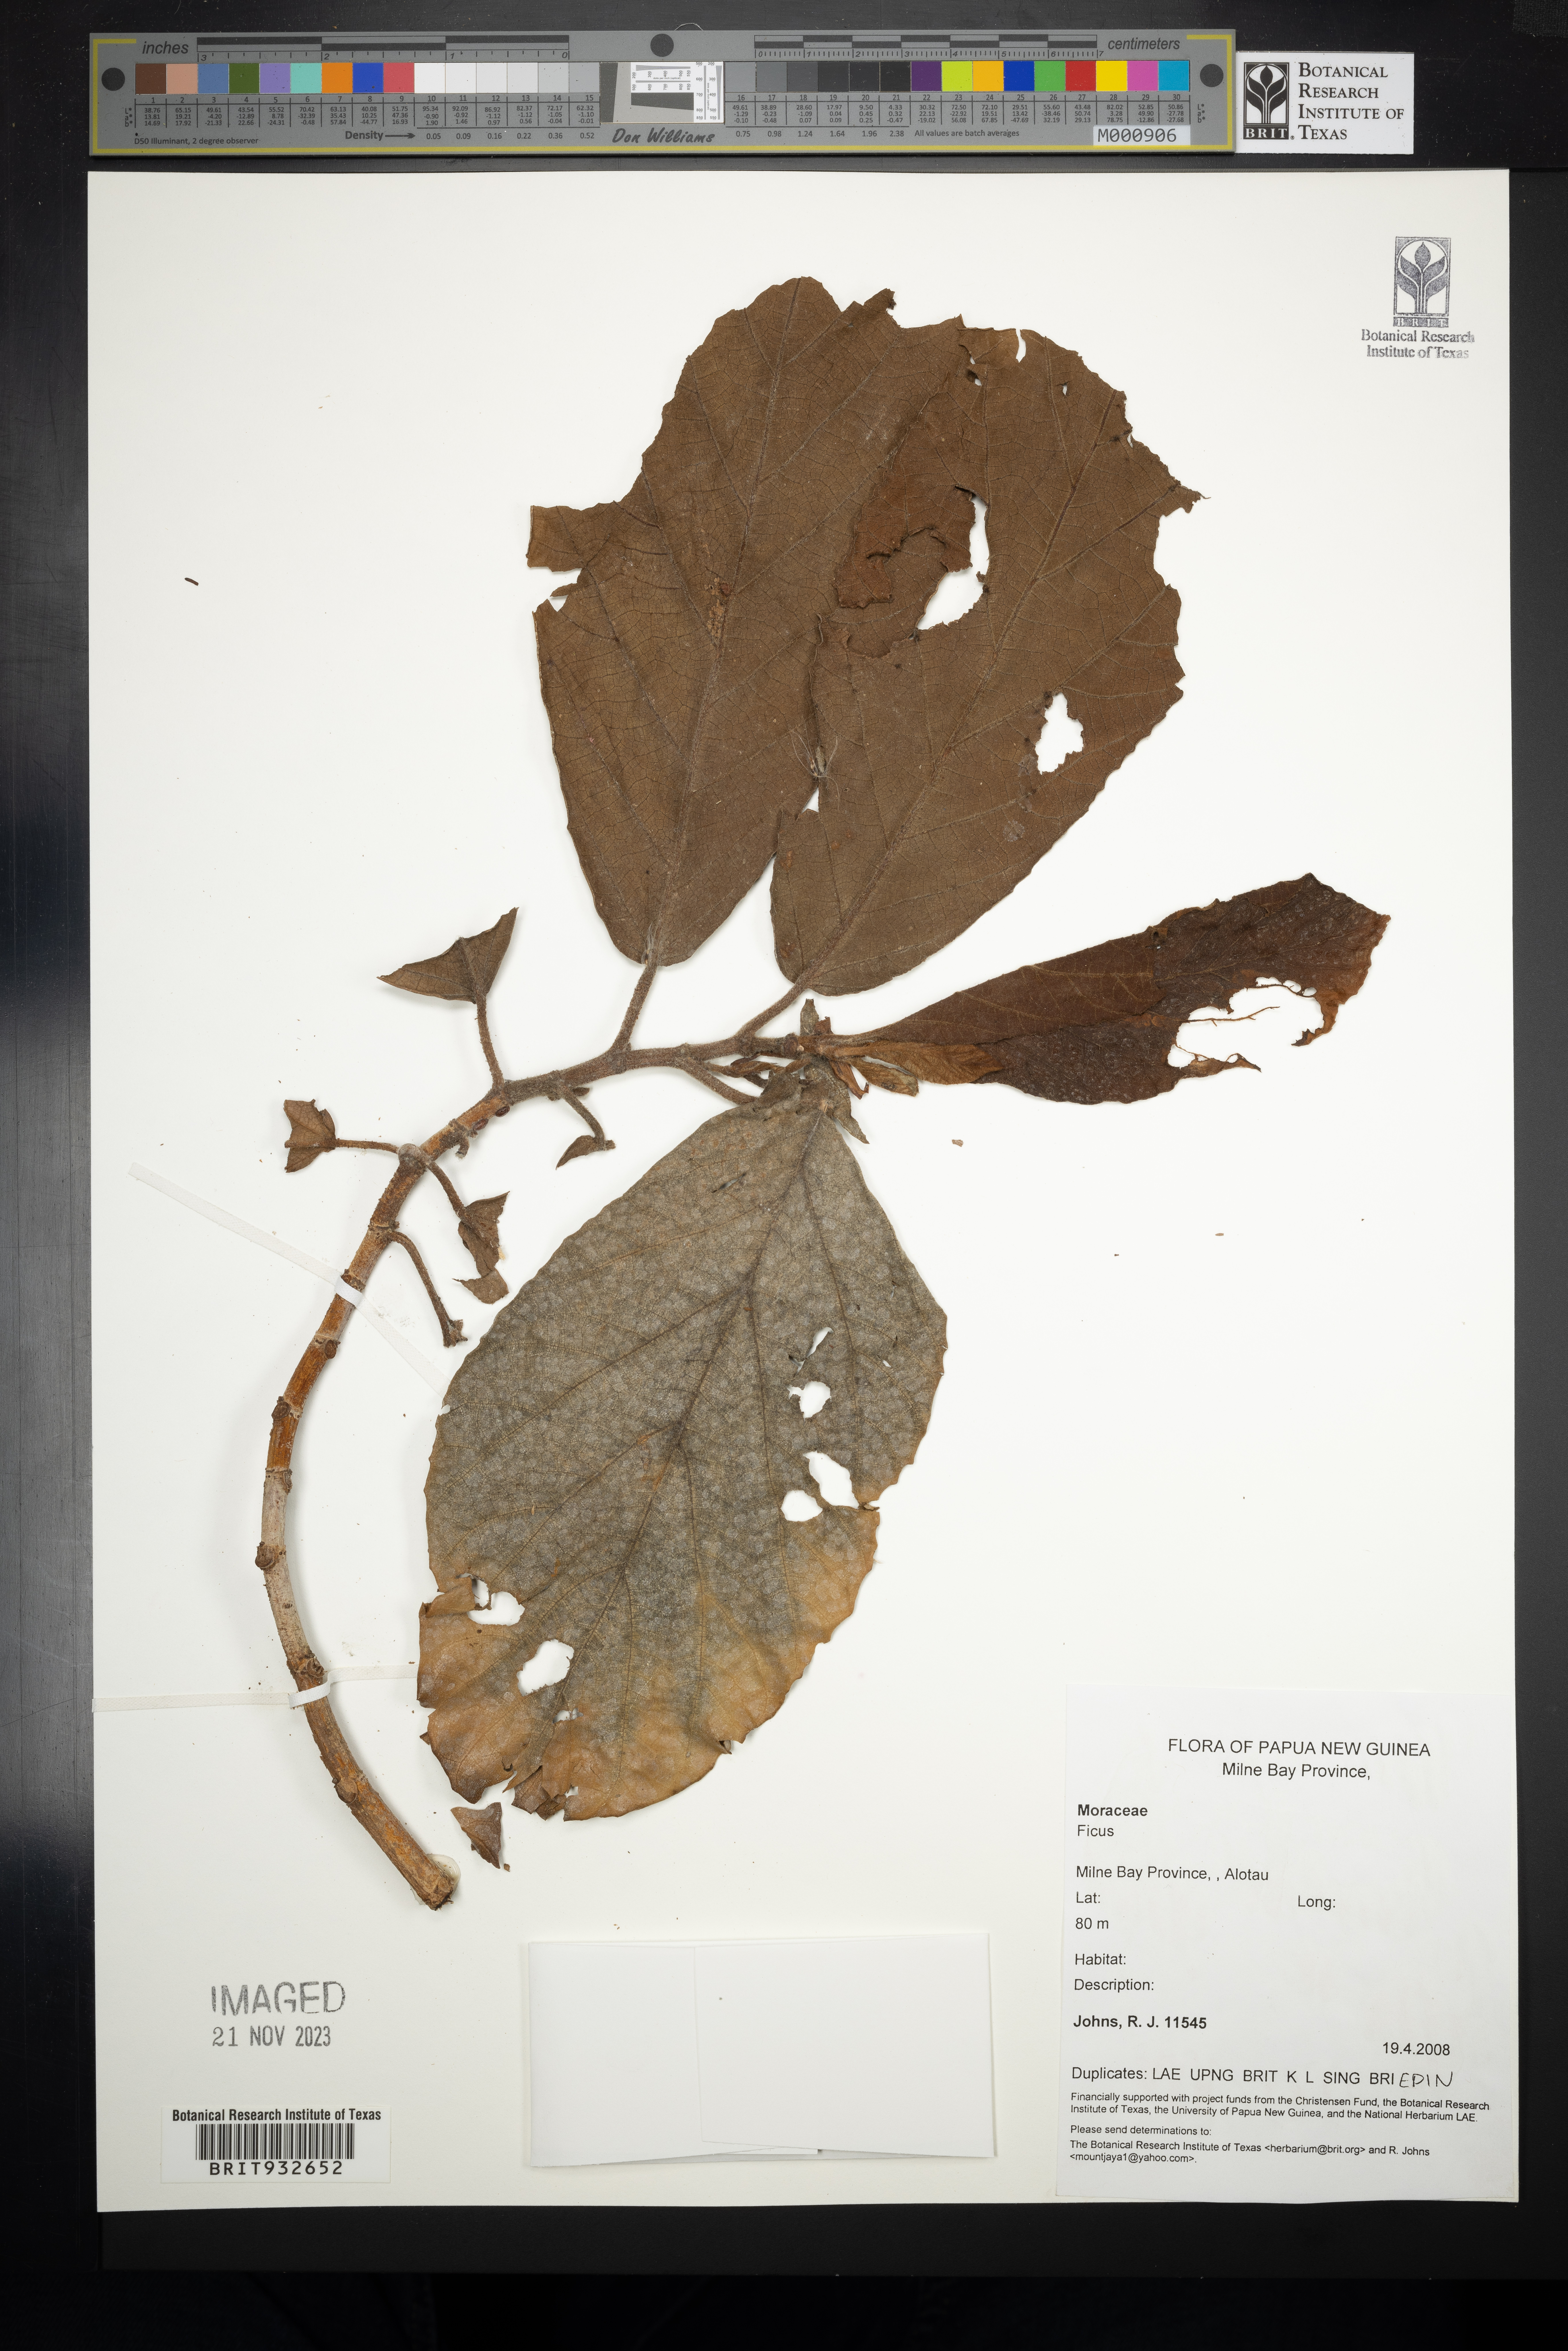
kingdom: Plantae
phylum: Tracheophyta
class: Magnoliopsida
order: Rosales
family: Moraceae
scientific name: Moraceae
